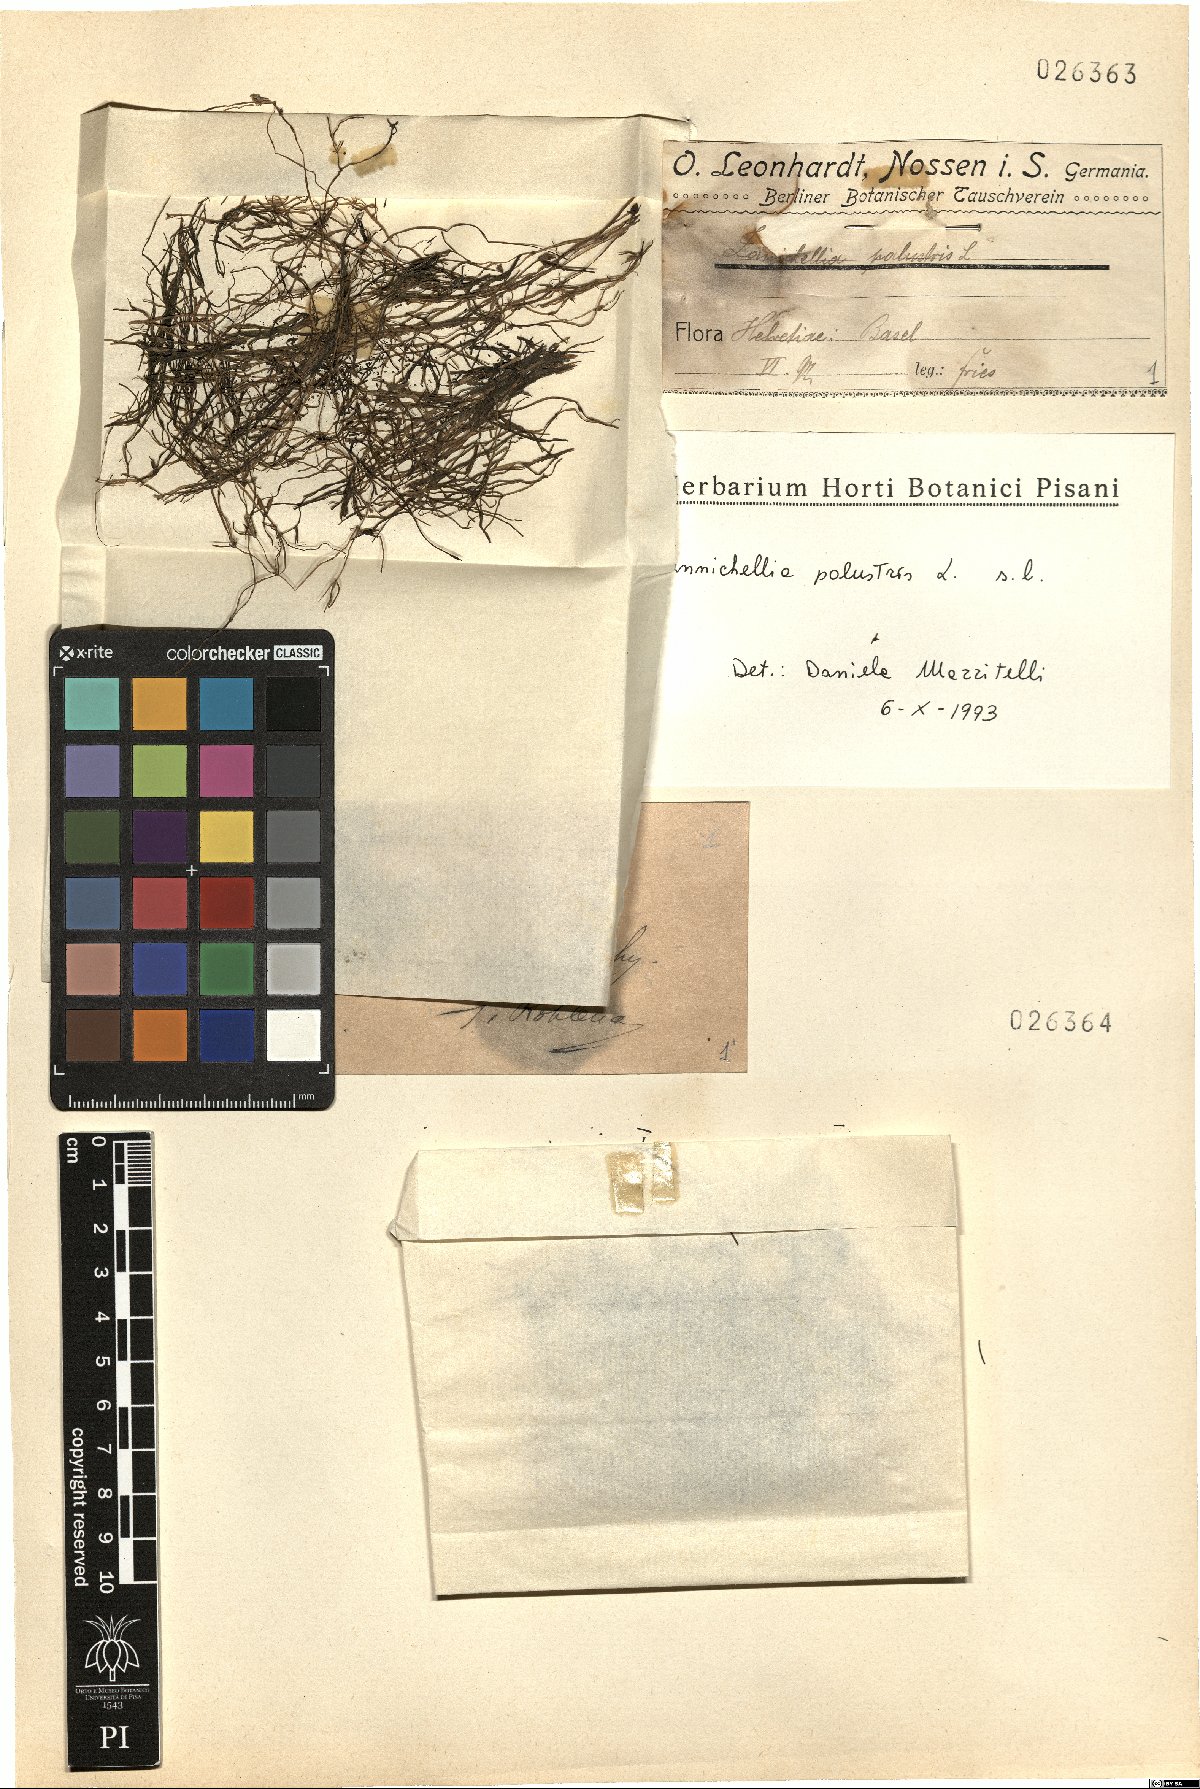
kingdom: Plantae
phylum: Tracheophyta
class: Liliopsida
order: Alismatales
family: Potamogetonaceae
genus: Zannichellia
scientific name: Zannichellia palustris
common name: Horned pondweed
